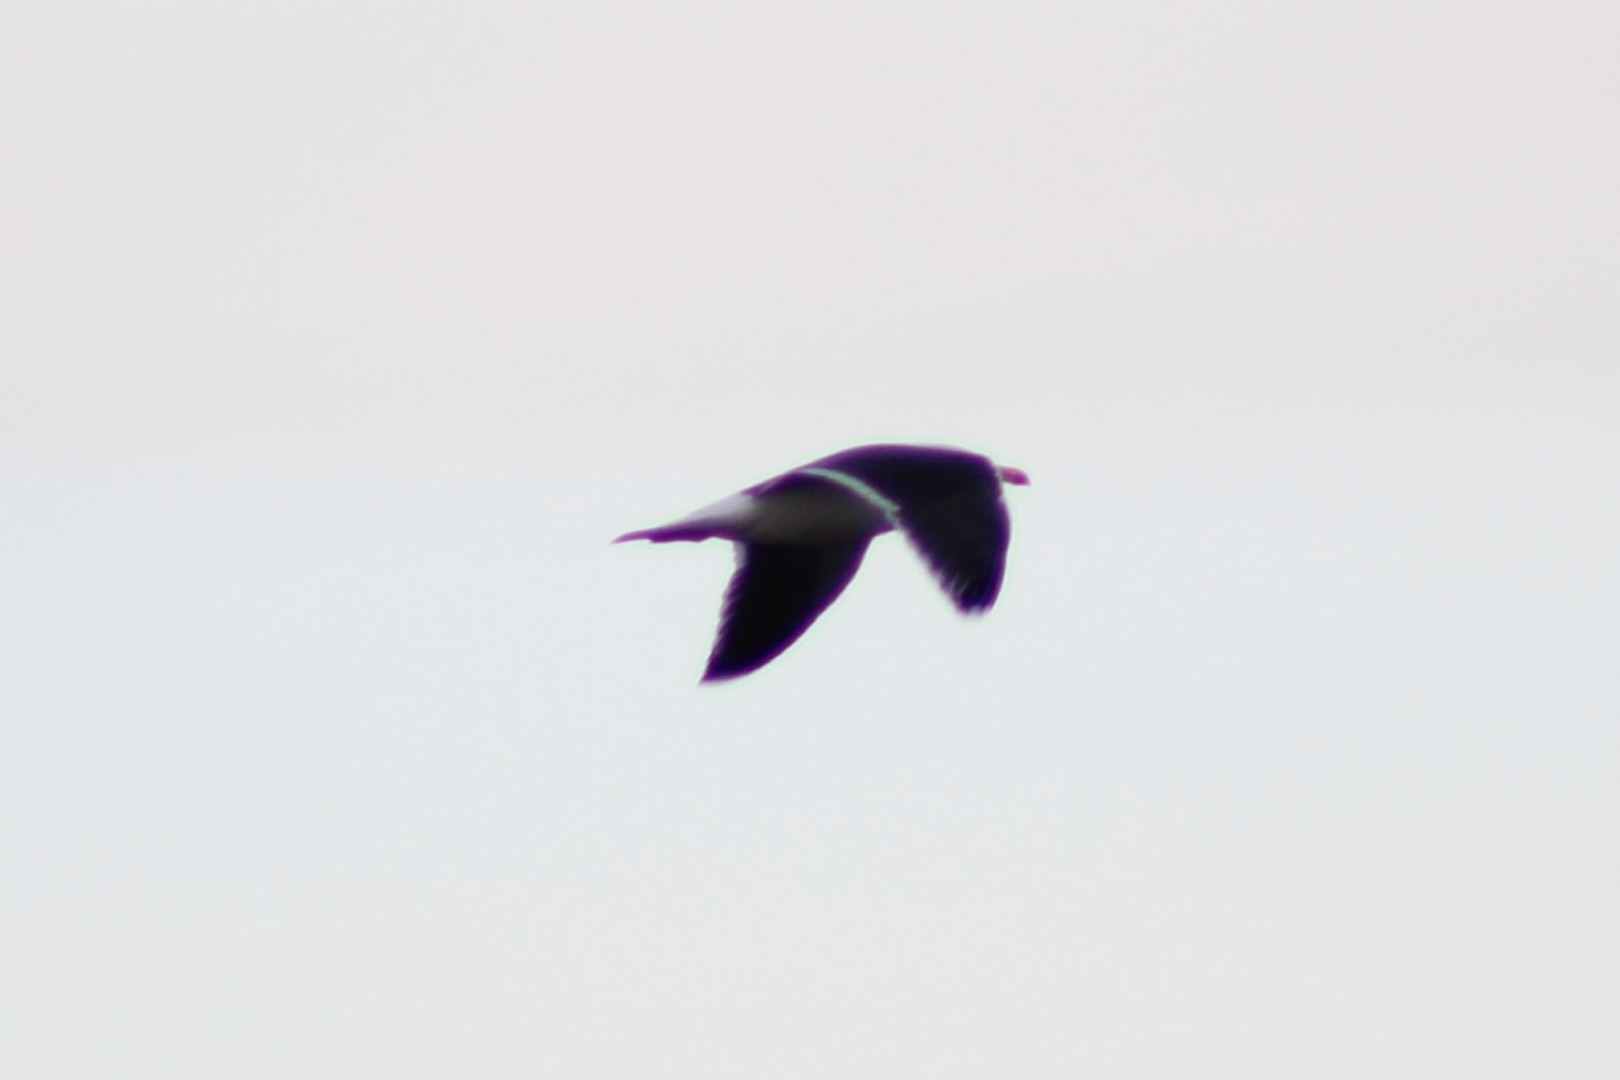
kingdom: Animalia
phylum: Chordata
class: Aves
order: Charadriiformes
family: Laridae
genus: Larus
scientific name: Larus marinus
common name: Svartbag
